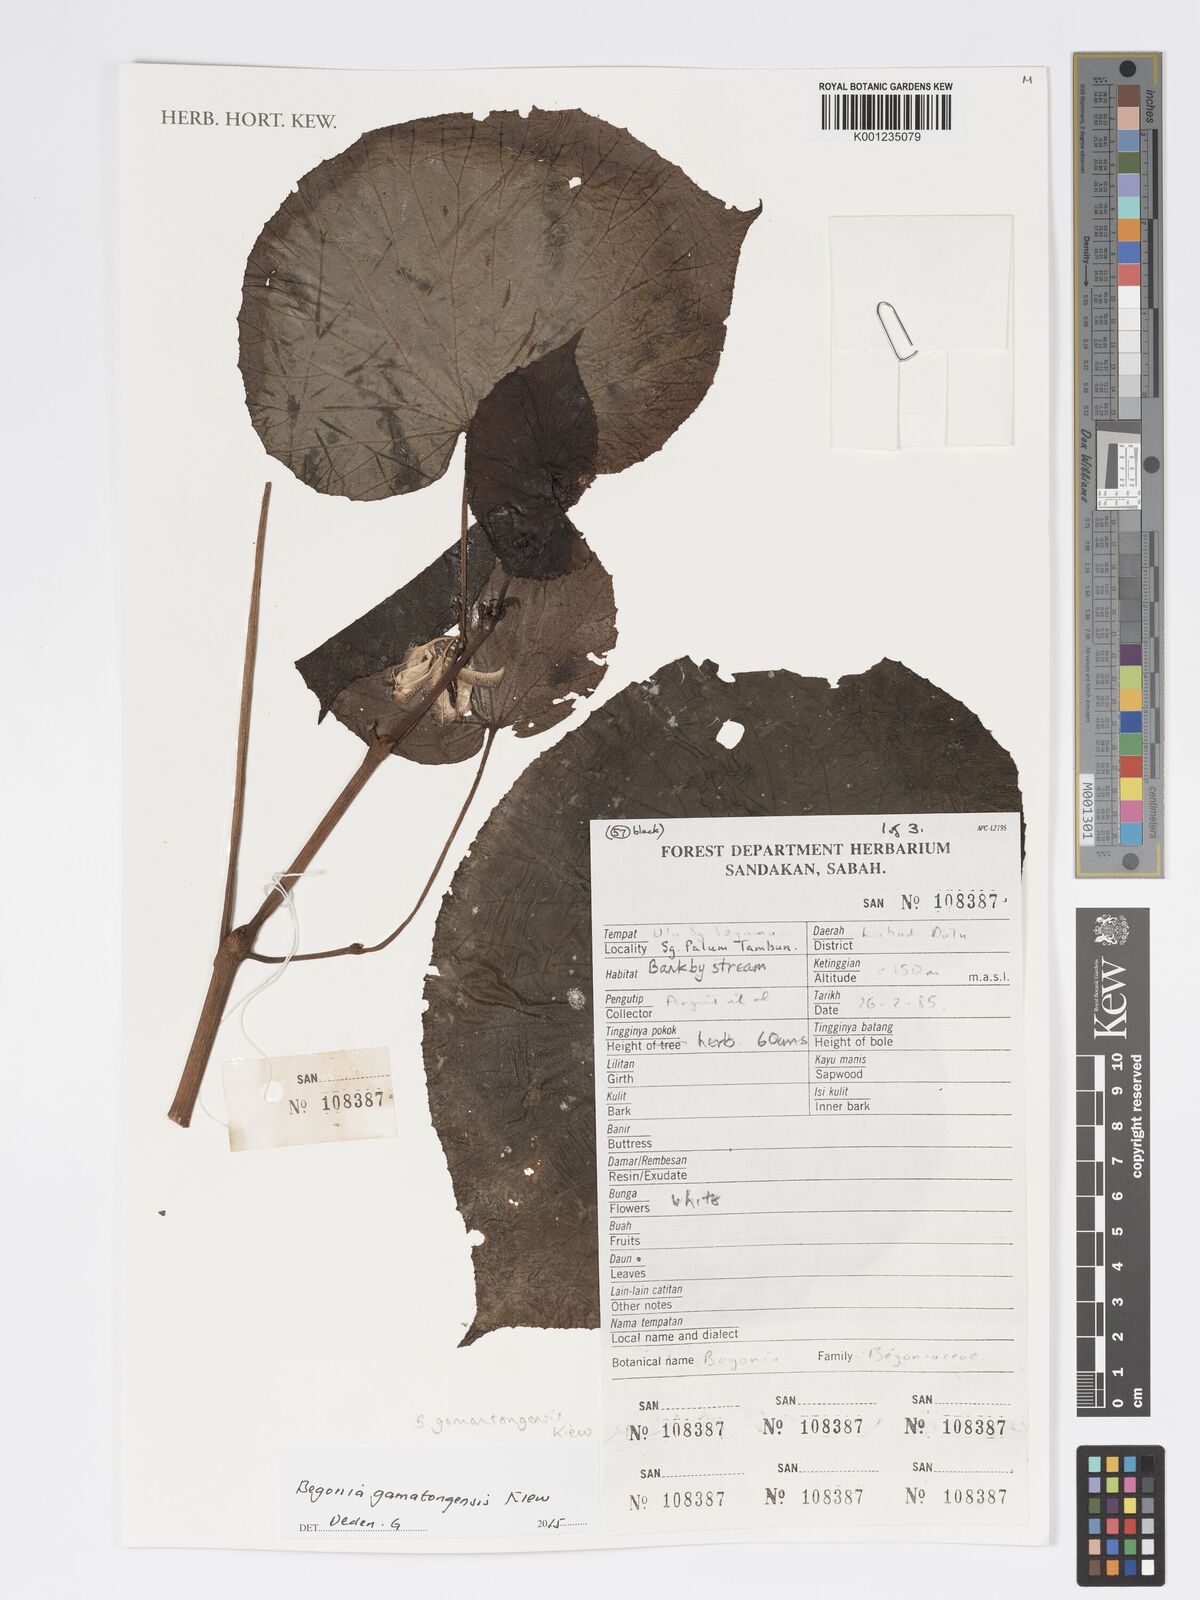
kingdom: Plantae
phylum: Tracheophyta
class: Magnoliopsida
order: Cucurbitales
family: Begoniaceae
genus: Begonia
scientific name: Begonia gomantongensis
